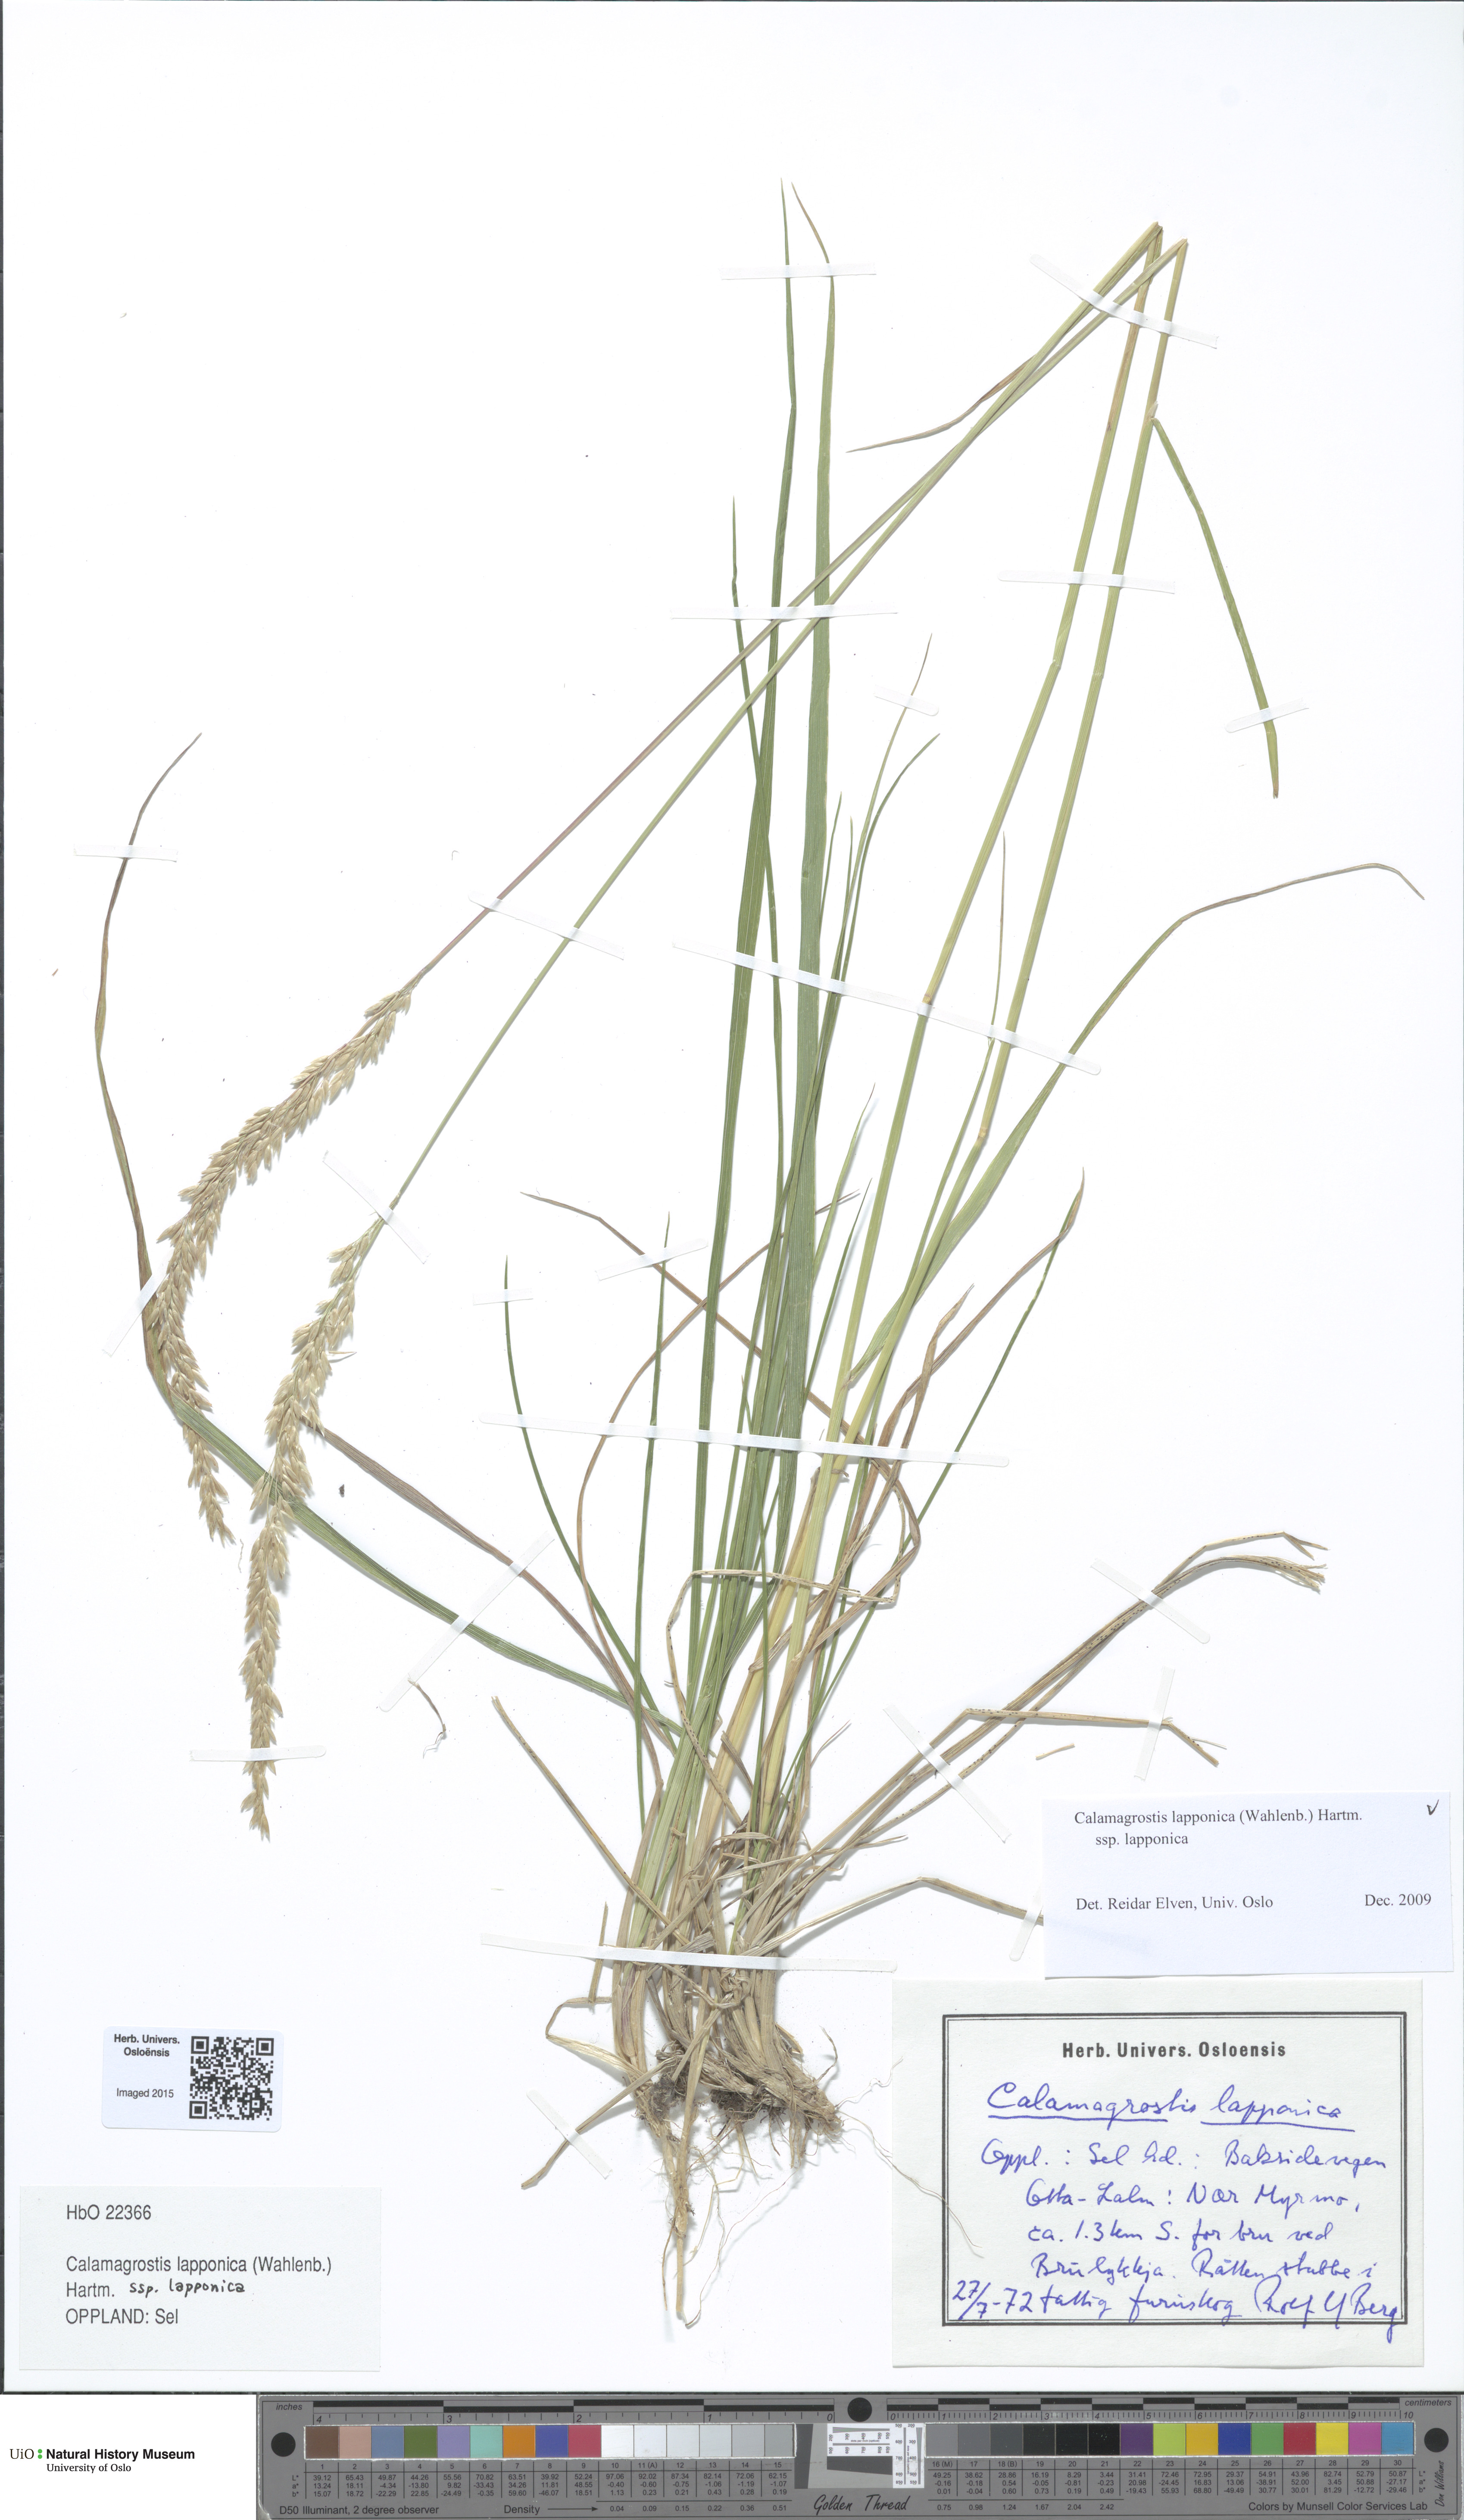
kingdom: Plantae
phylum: Tracheophyta
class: Liliopsida
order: Poales
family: Poaceae
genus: Calamagrostis
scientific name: Calamagrostis lapponica
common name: Lapland reedgrass
